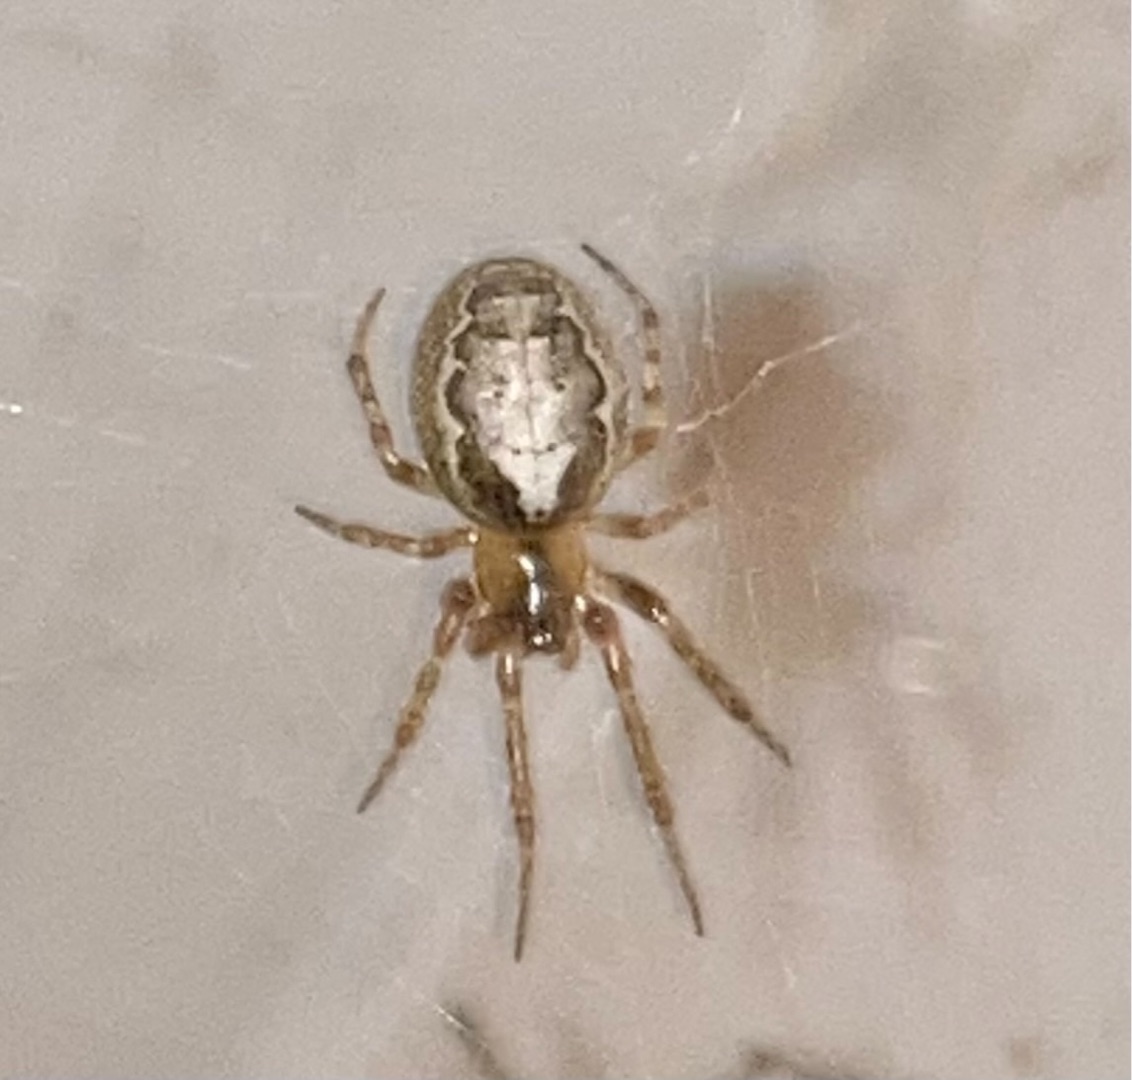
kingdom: Animalia
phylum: Arthropoda
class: Arachnida
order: Araneae
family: Araneidae
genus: Zygiella
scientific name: Zygiella x-notata
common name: Grå sektoredderkop
